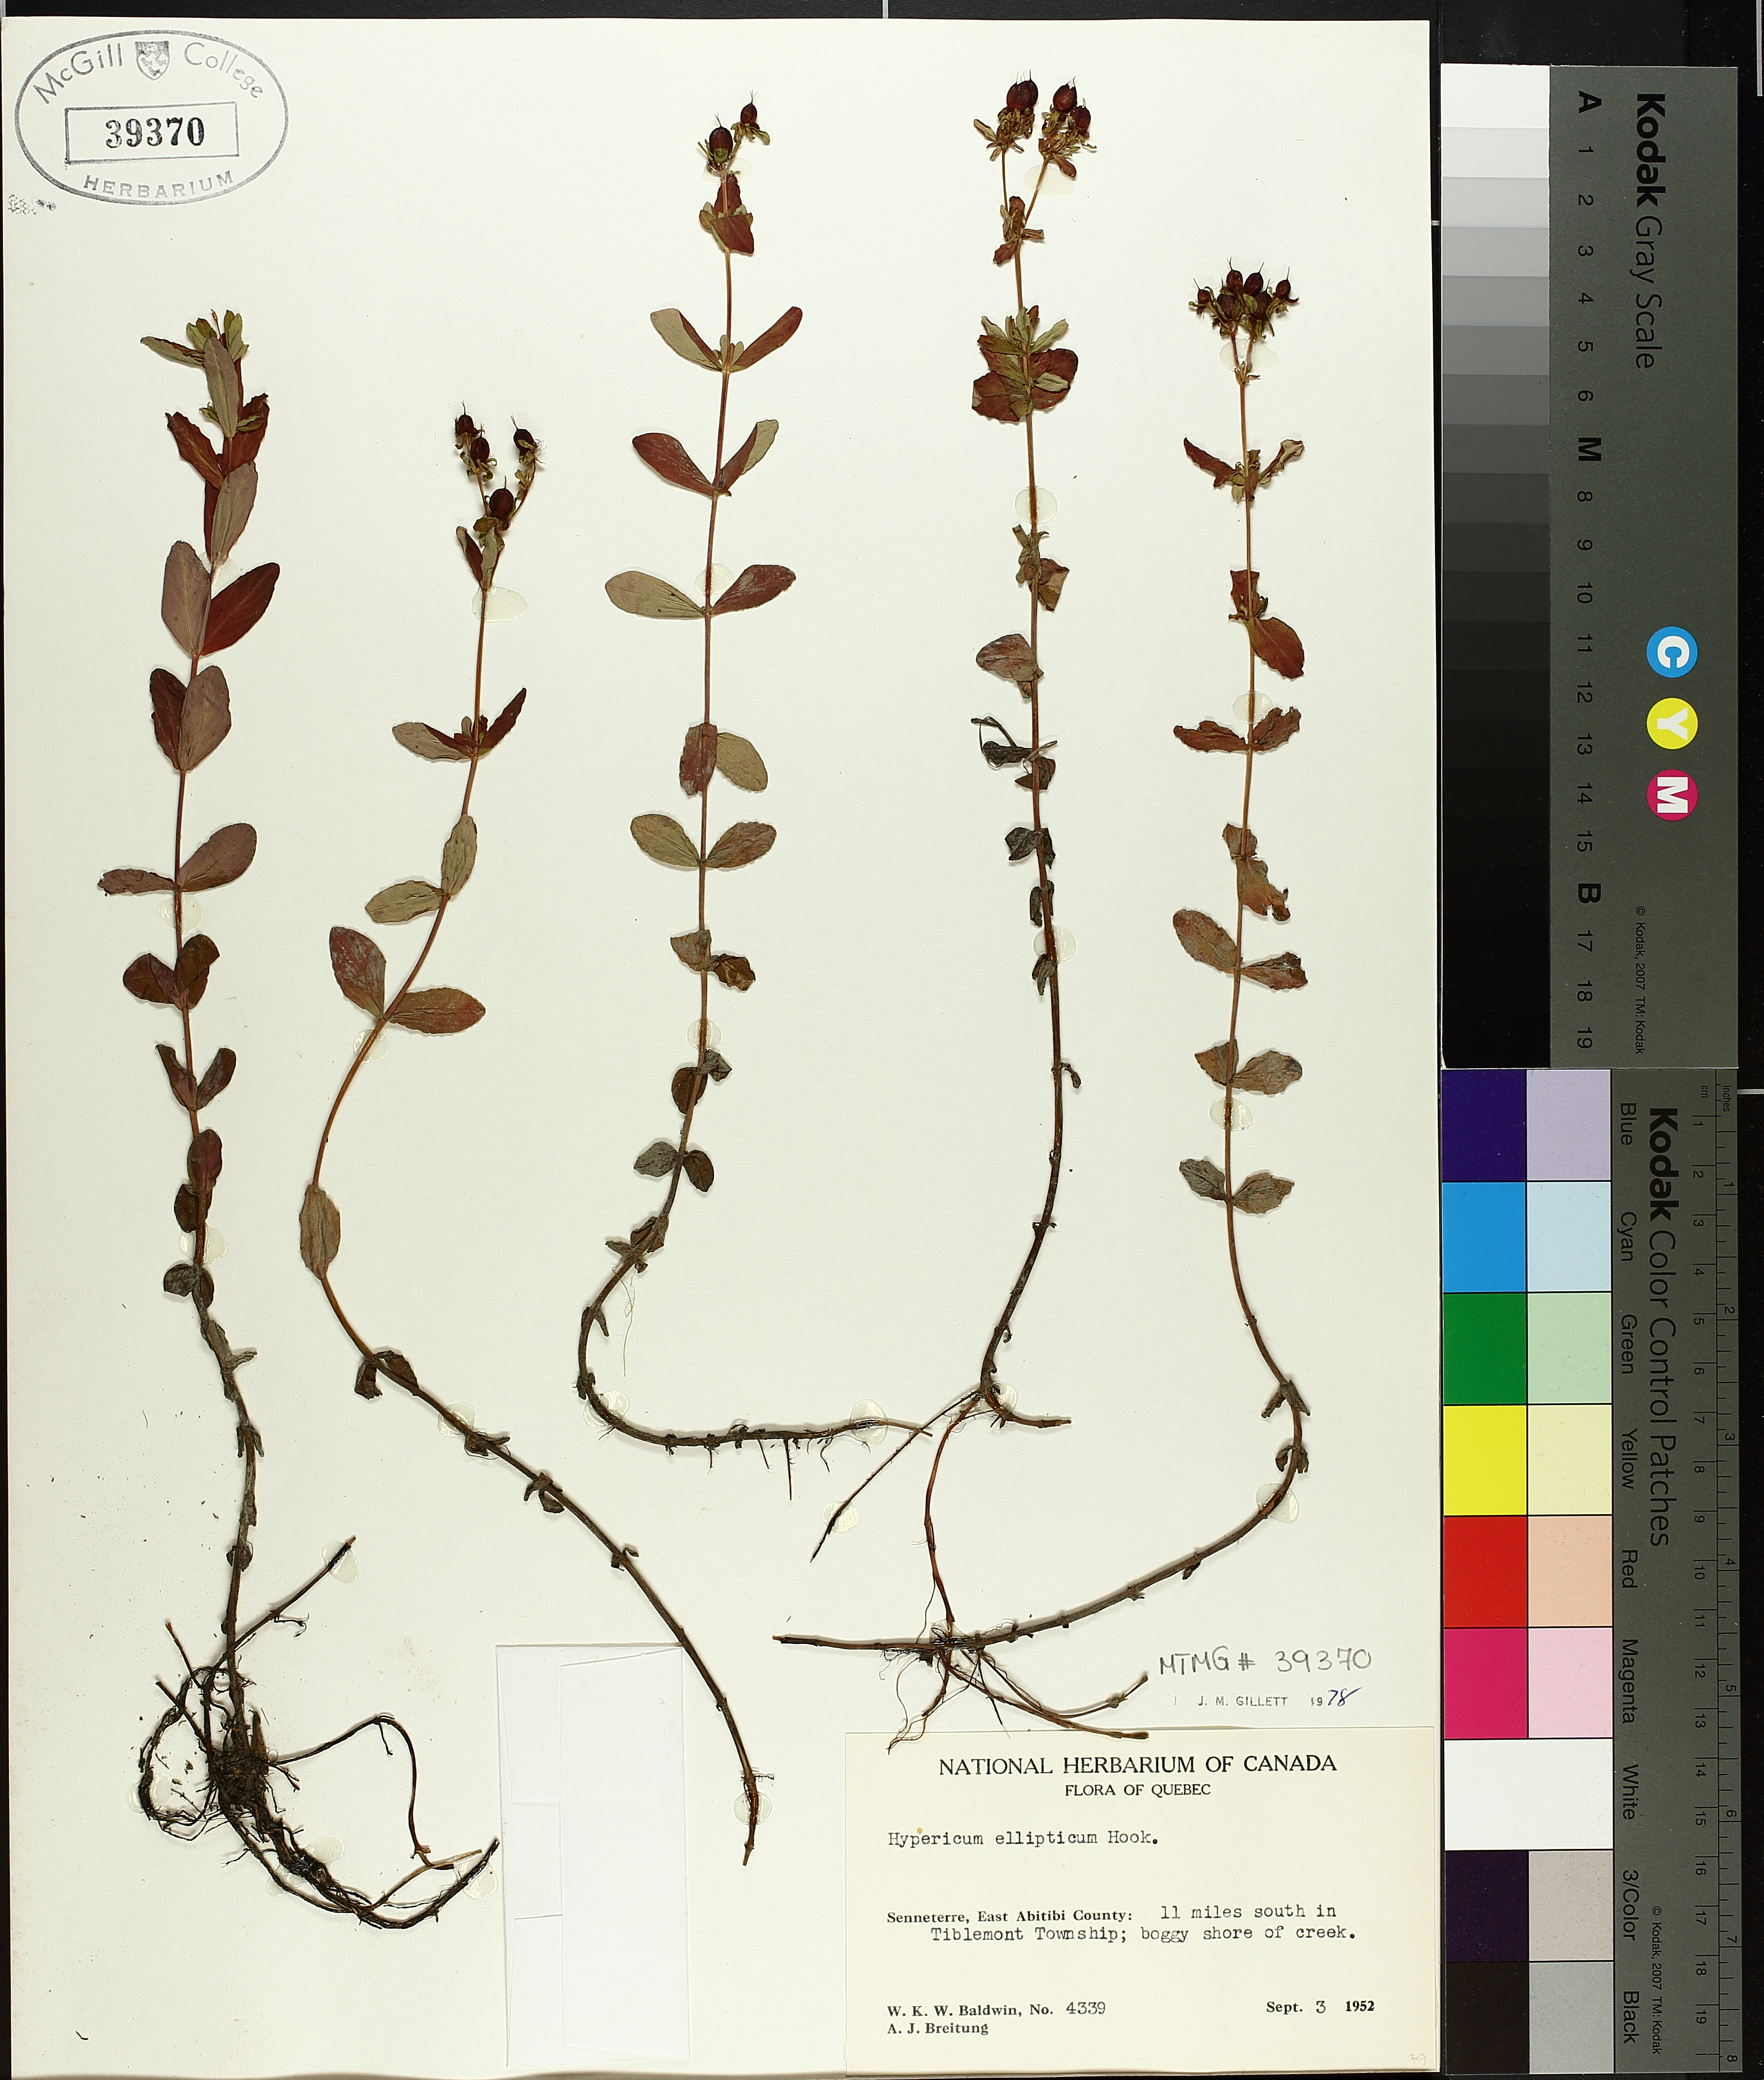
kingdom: Plantae
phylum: Tracheophyta
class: Magnoliopsida
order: Malpighiales
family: Hypericaceae
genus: Hypericum
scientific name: Hypericum ellipticum
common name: Elliptic st. john's-wort
